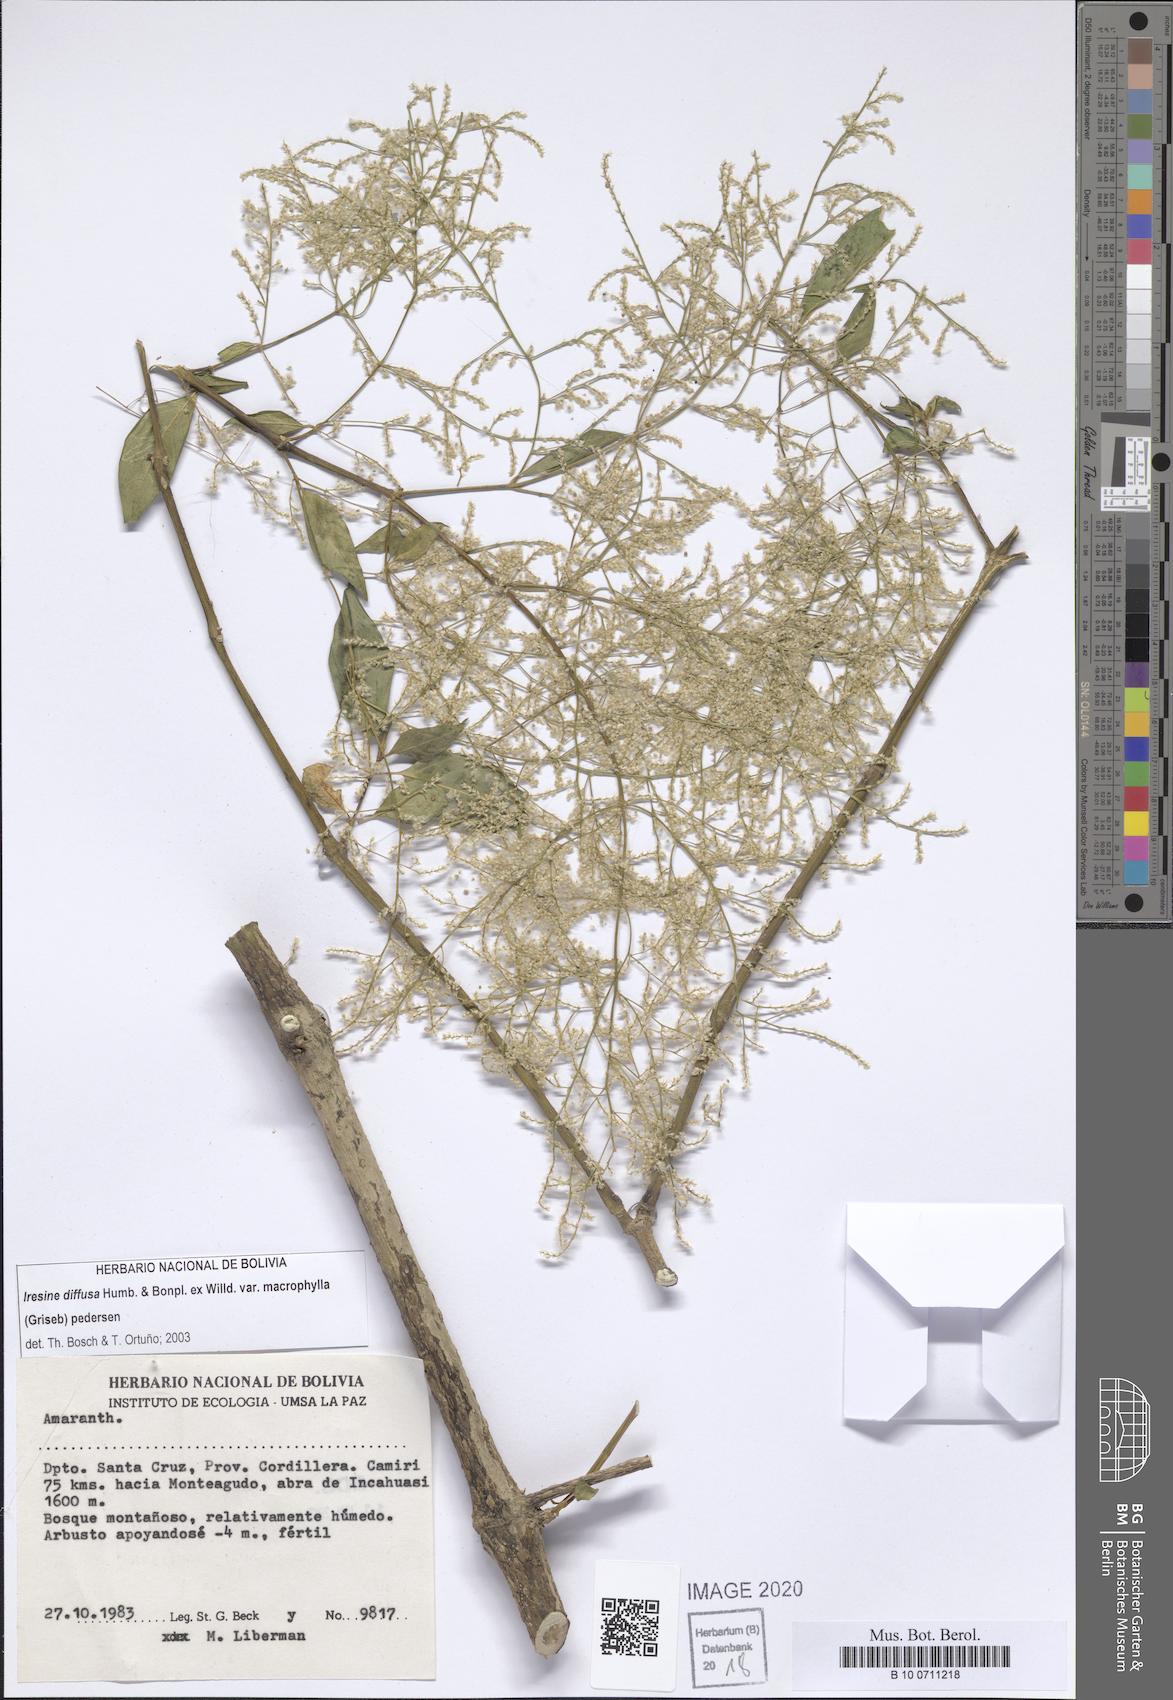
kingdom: Plantae
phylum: Tracheophyta
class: Magnoliopsida
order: Caryophyllales
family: Amaranthaceae
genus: Iresine
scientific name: Iresine diffusa
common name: Juba's-bush
